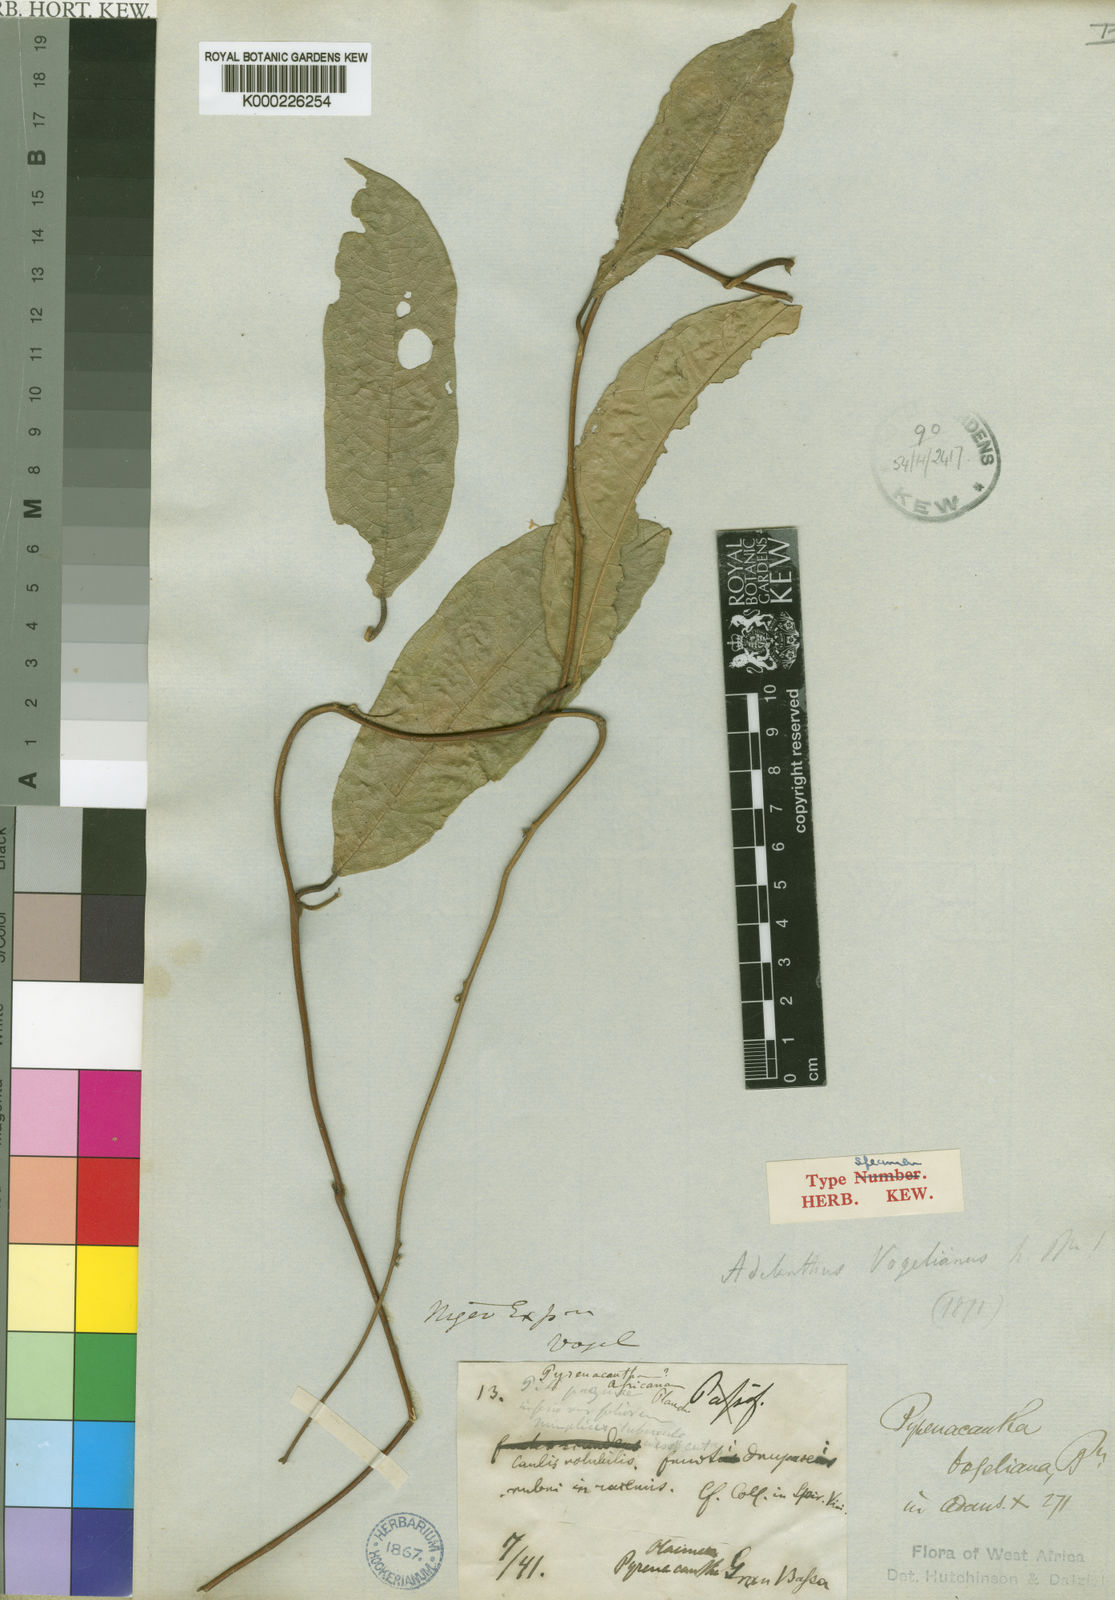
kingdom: Plantae
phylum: Tracheophyta
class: Magnoliopsida
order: Icacinales
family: Icacinaceae
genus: Pyrenacantha
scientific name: Pyrenacantha vogeliana
